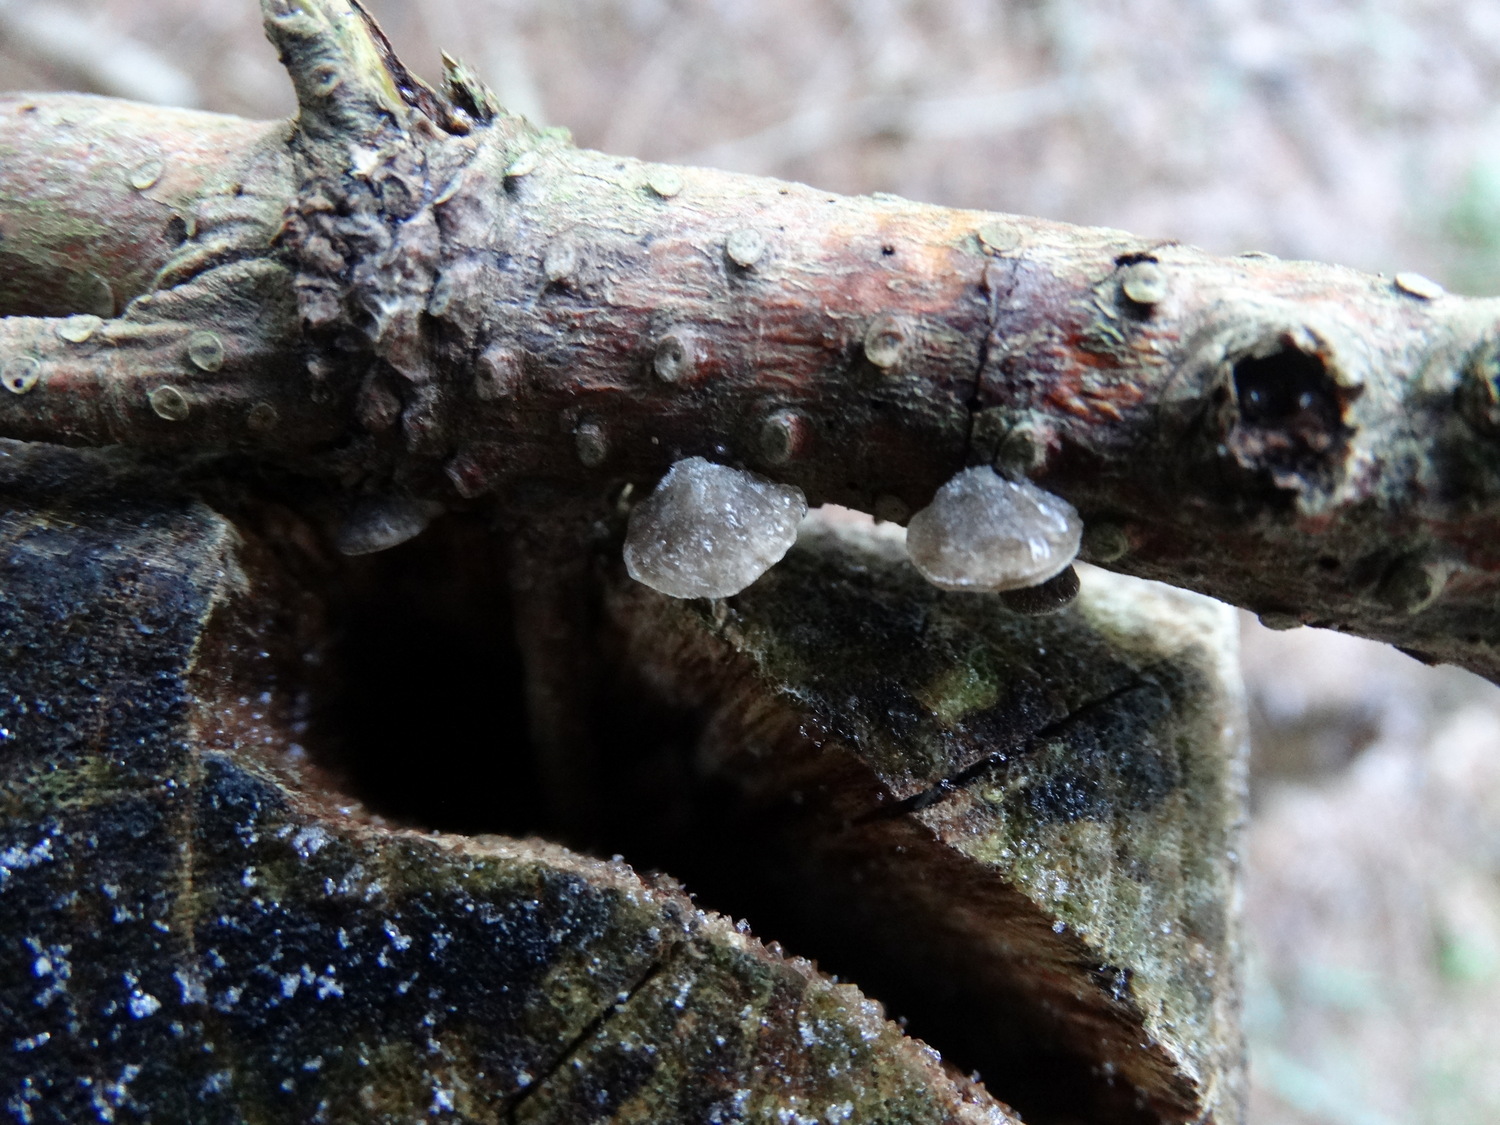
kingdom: Fungi
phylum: Basidiomycota
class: Agaricomycetes
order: Agaricales
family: Pleurotaceae
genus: Hohenbuehelia
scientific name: Hohenbuehelia
